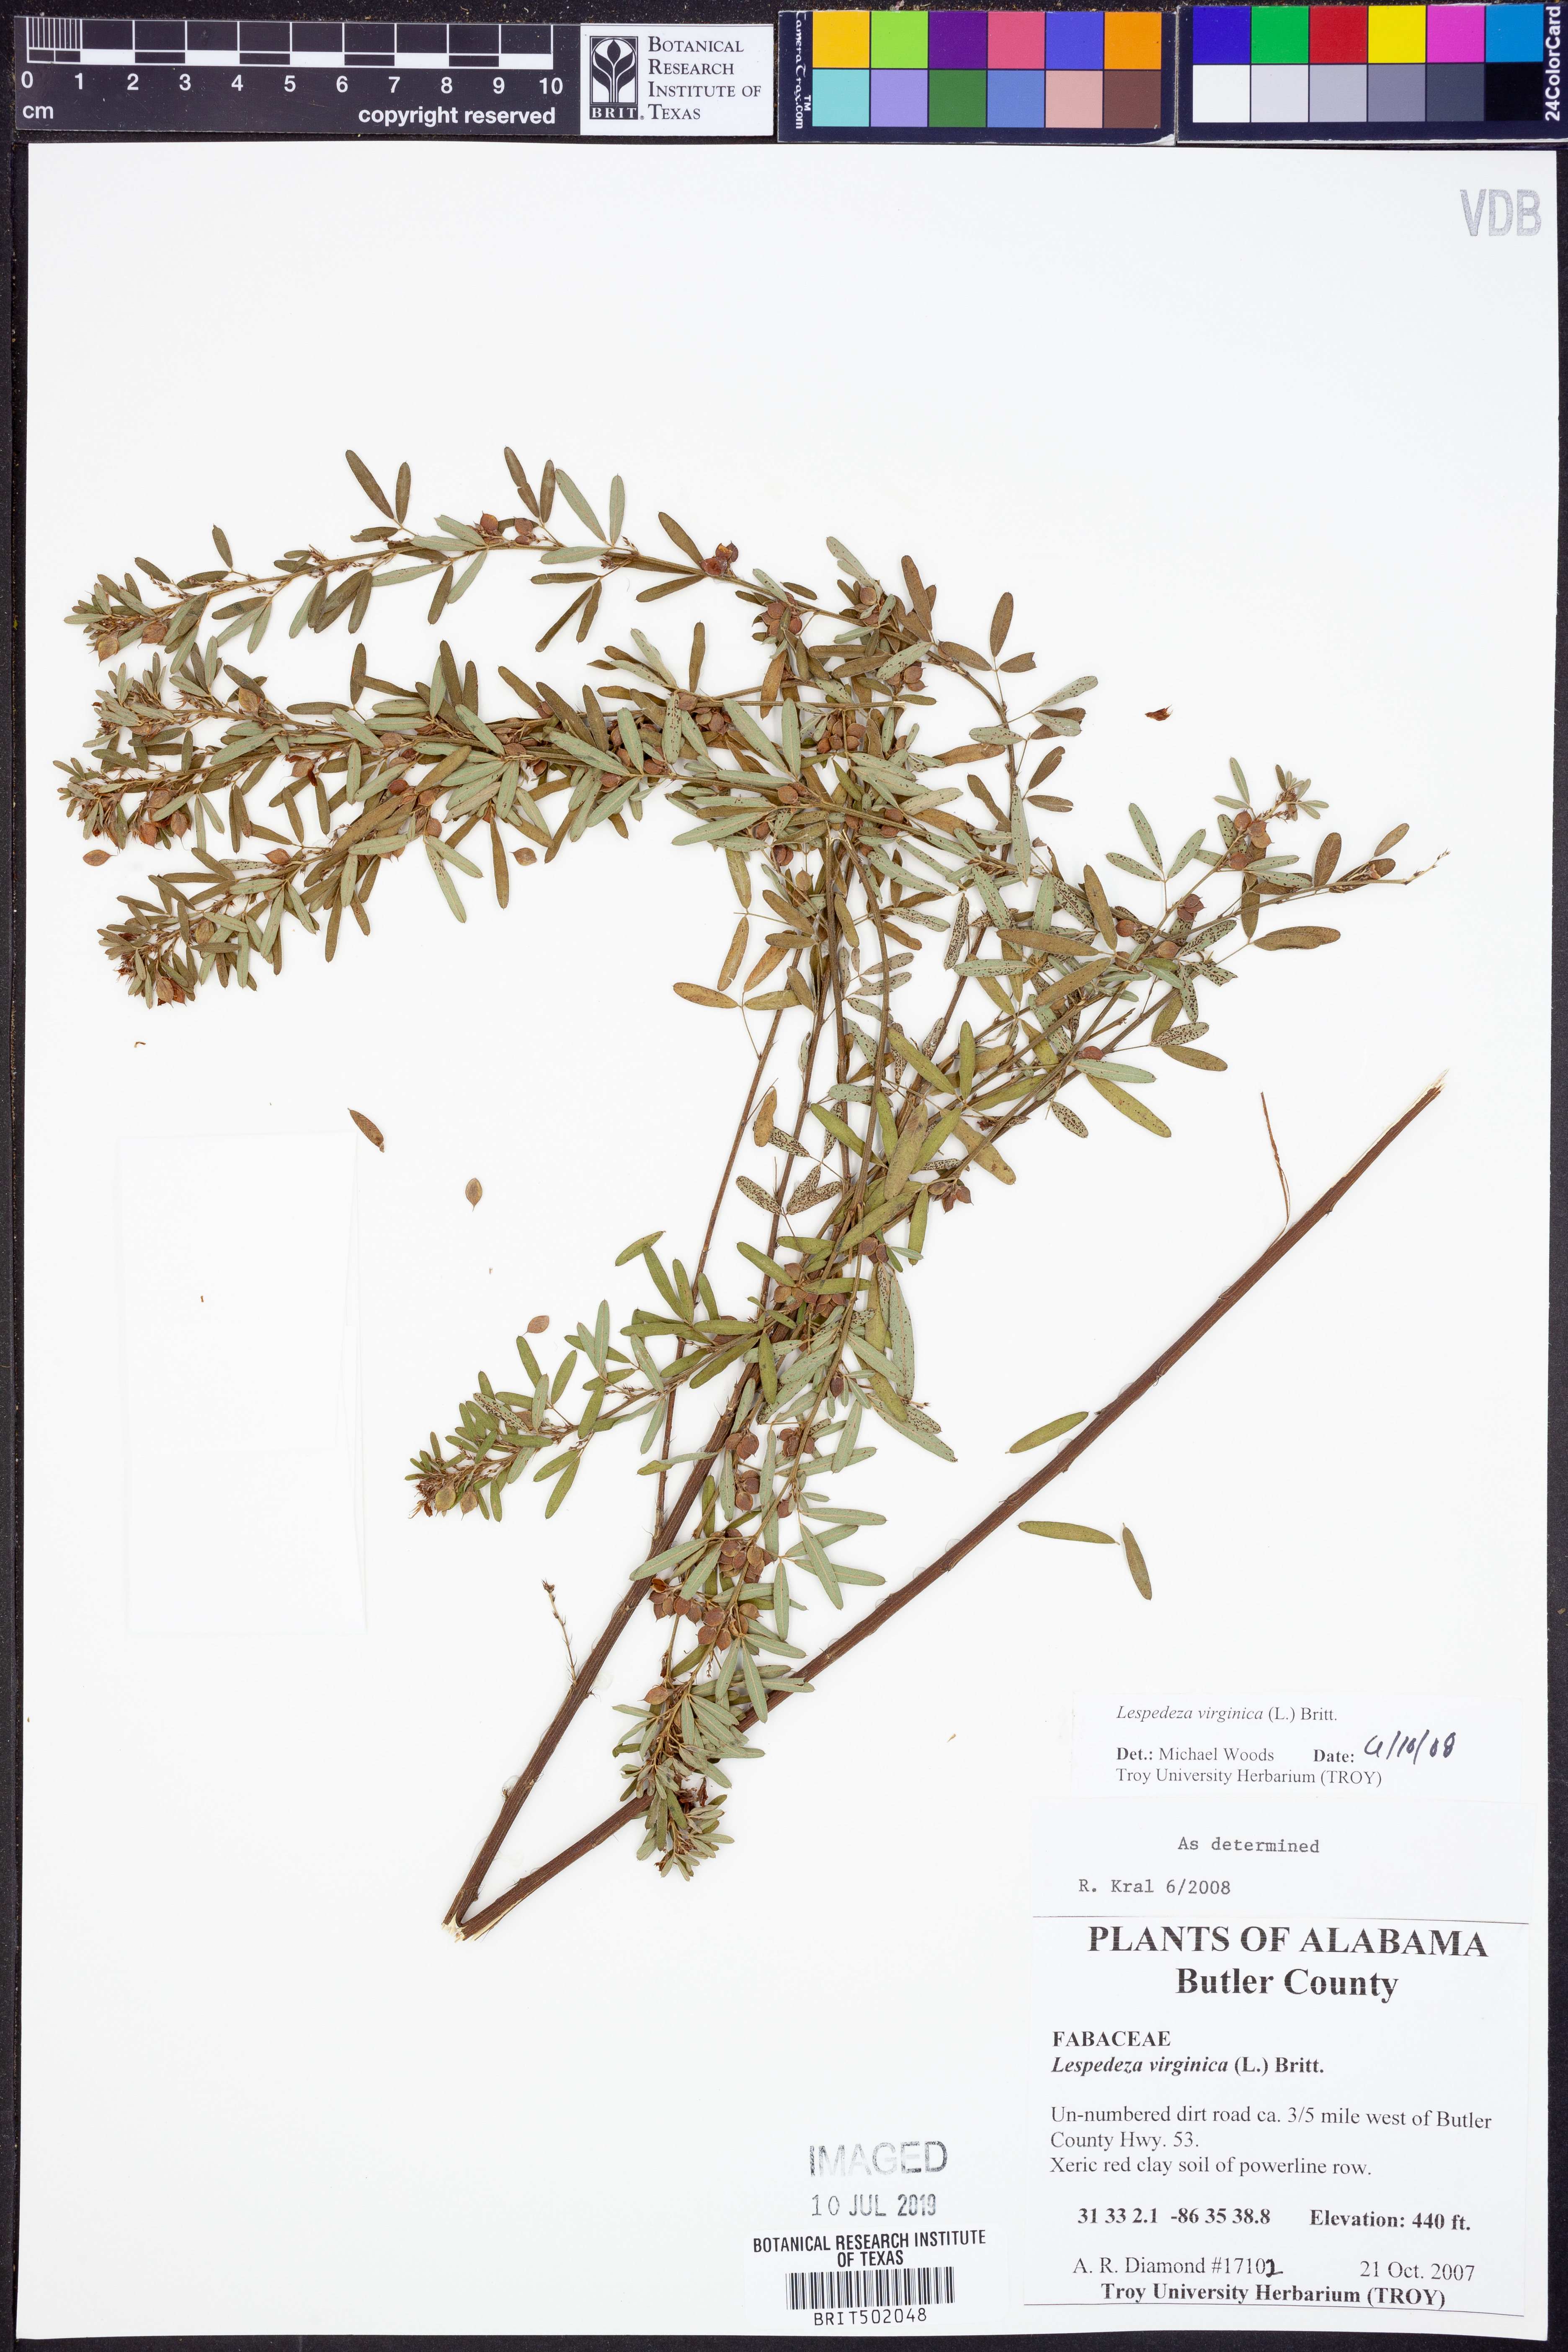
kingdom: Plantae
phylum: Tracheophyta
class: Magnoliopsida
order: Fabales
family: Fabaceae
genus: Lespedeza
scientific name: Lespedeza virginica
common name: Slender bush-clover
